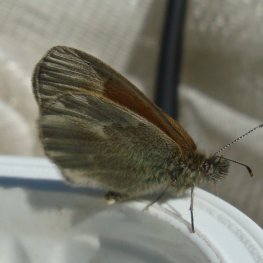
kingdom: Animalia
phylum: Arthropoda
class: Insecta
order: Lepidoptera
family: Nymphalidae
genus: Coenonympha
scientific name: Coenonympha tullia
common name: Large Heath
